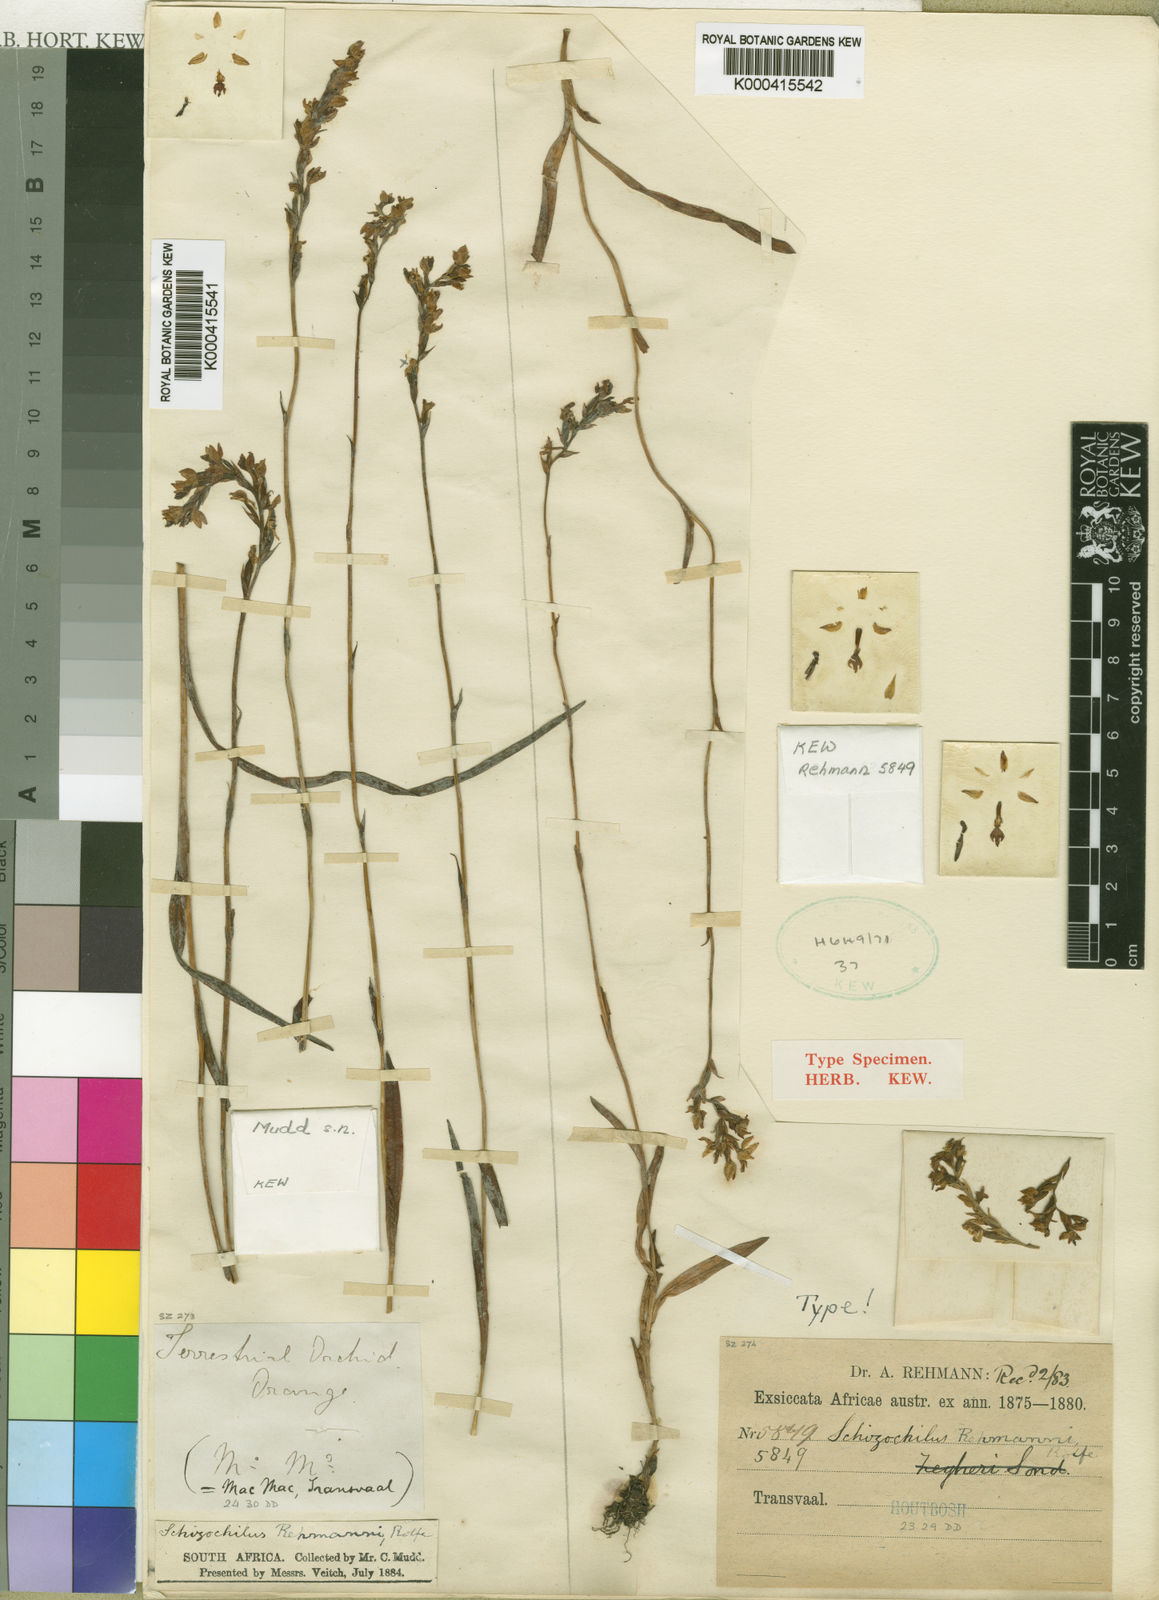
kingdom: Plantae
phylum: Tracheophyta
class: Liliopsida
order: Asparagales
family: Orchidaceae
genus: Schizochilus
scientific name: Schizochilus zeyheri
